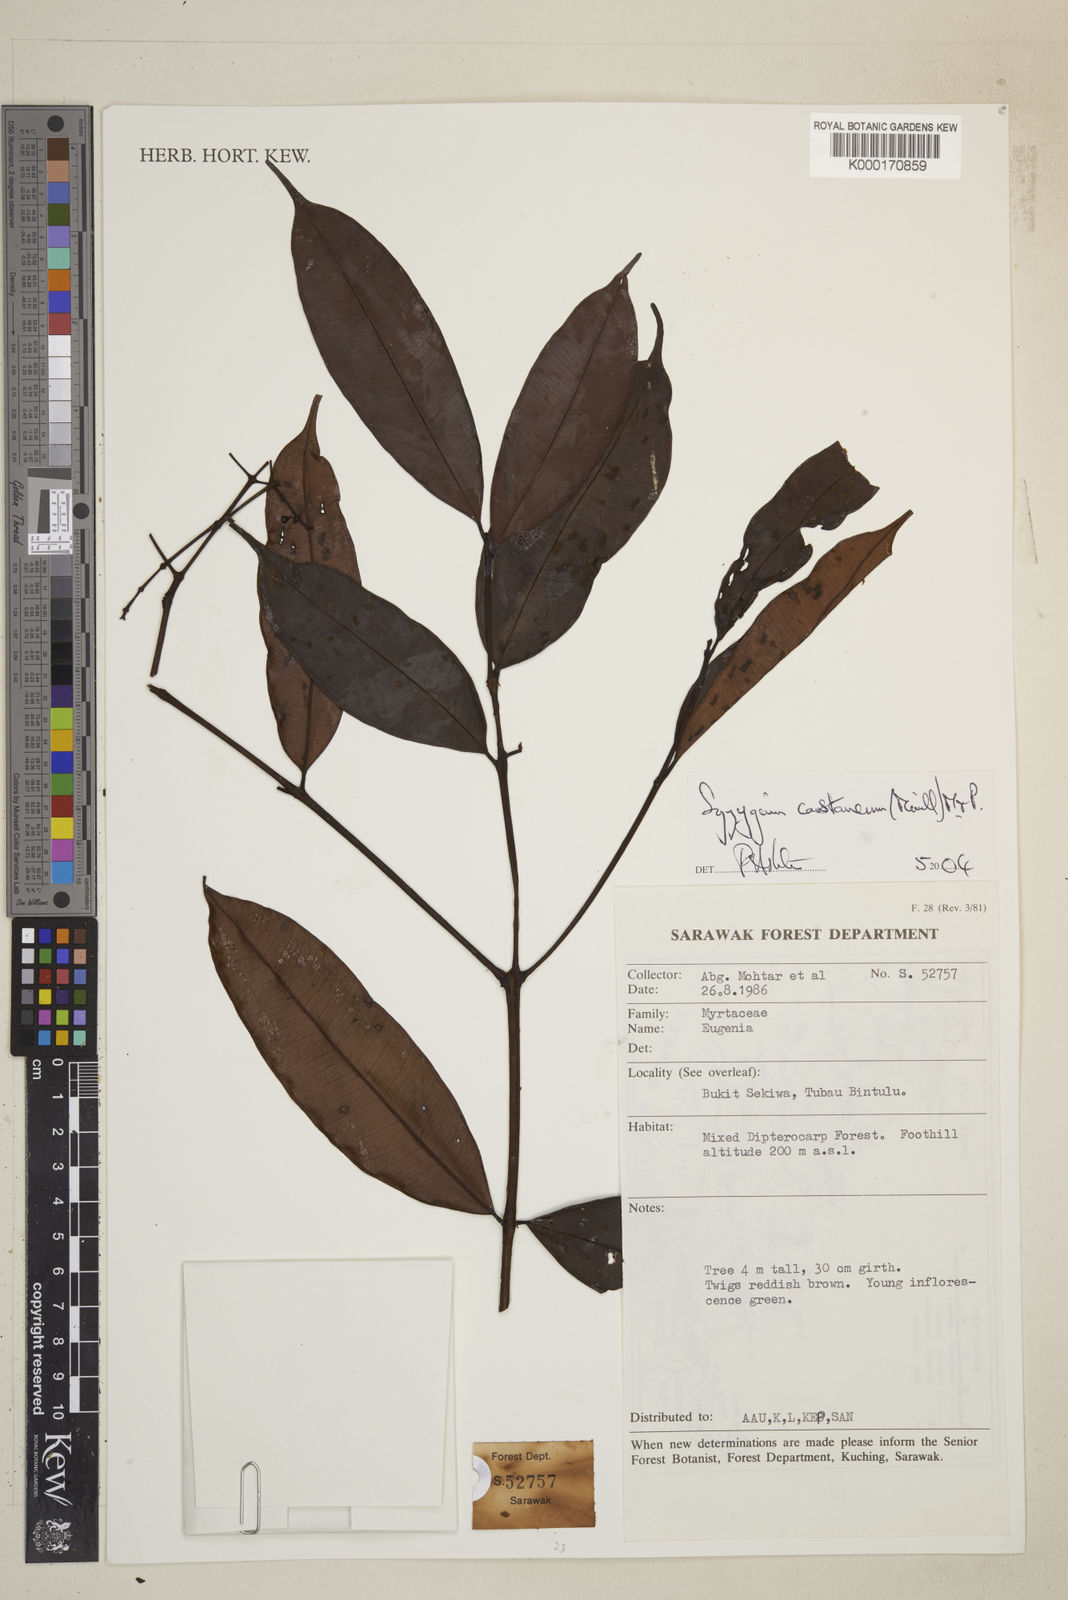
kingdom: Plantae
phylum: Tracheophyta
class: Magnoliopsida
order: Myrtales
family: Myrtaceae
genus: Syzygium
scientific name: Syzygium castaneum
